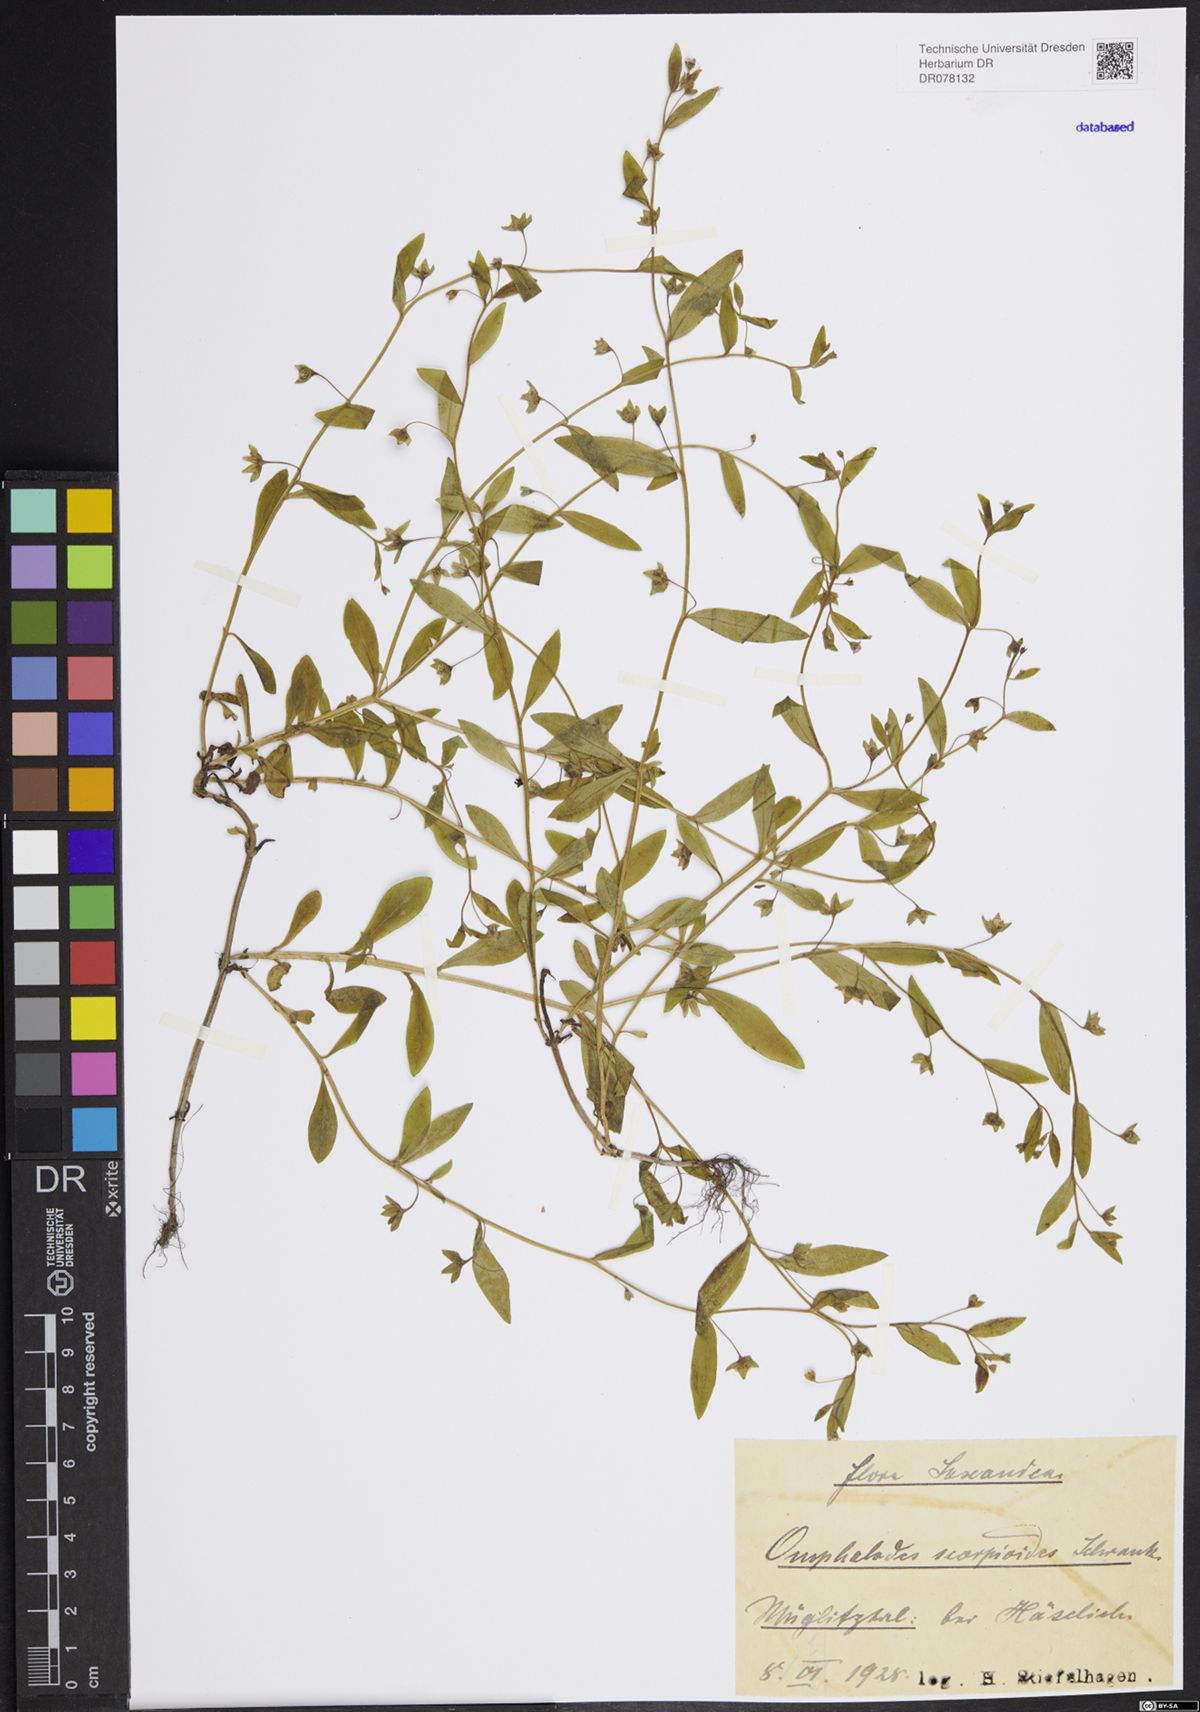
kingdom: Plantae
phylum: Tracheophyta
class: Magnoliopsida
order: Boraginales
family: Boraginaceae
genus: Memoremea
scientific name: Memoremea scorpioides
